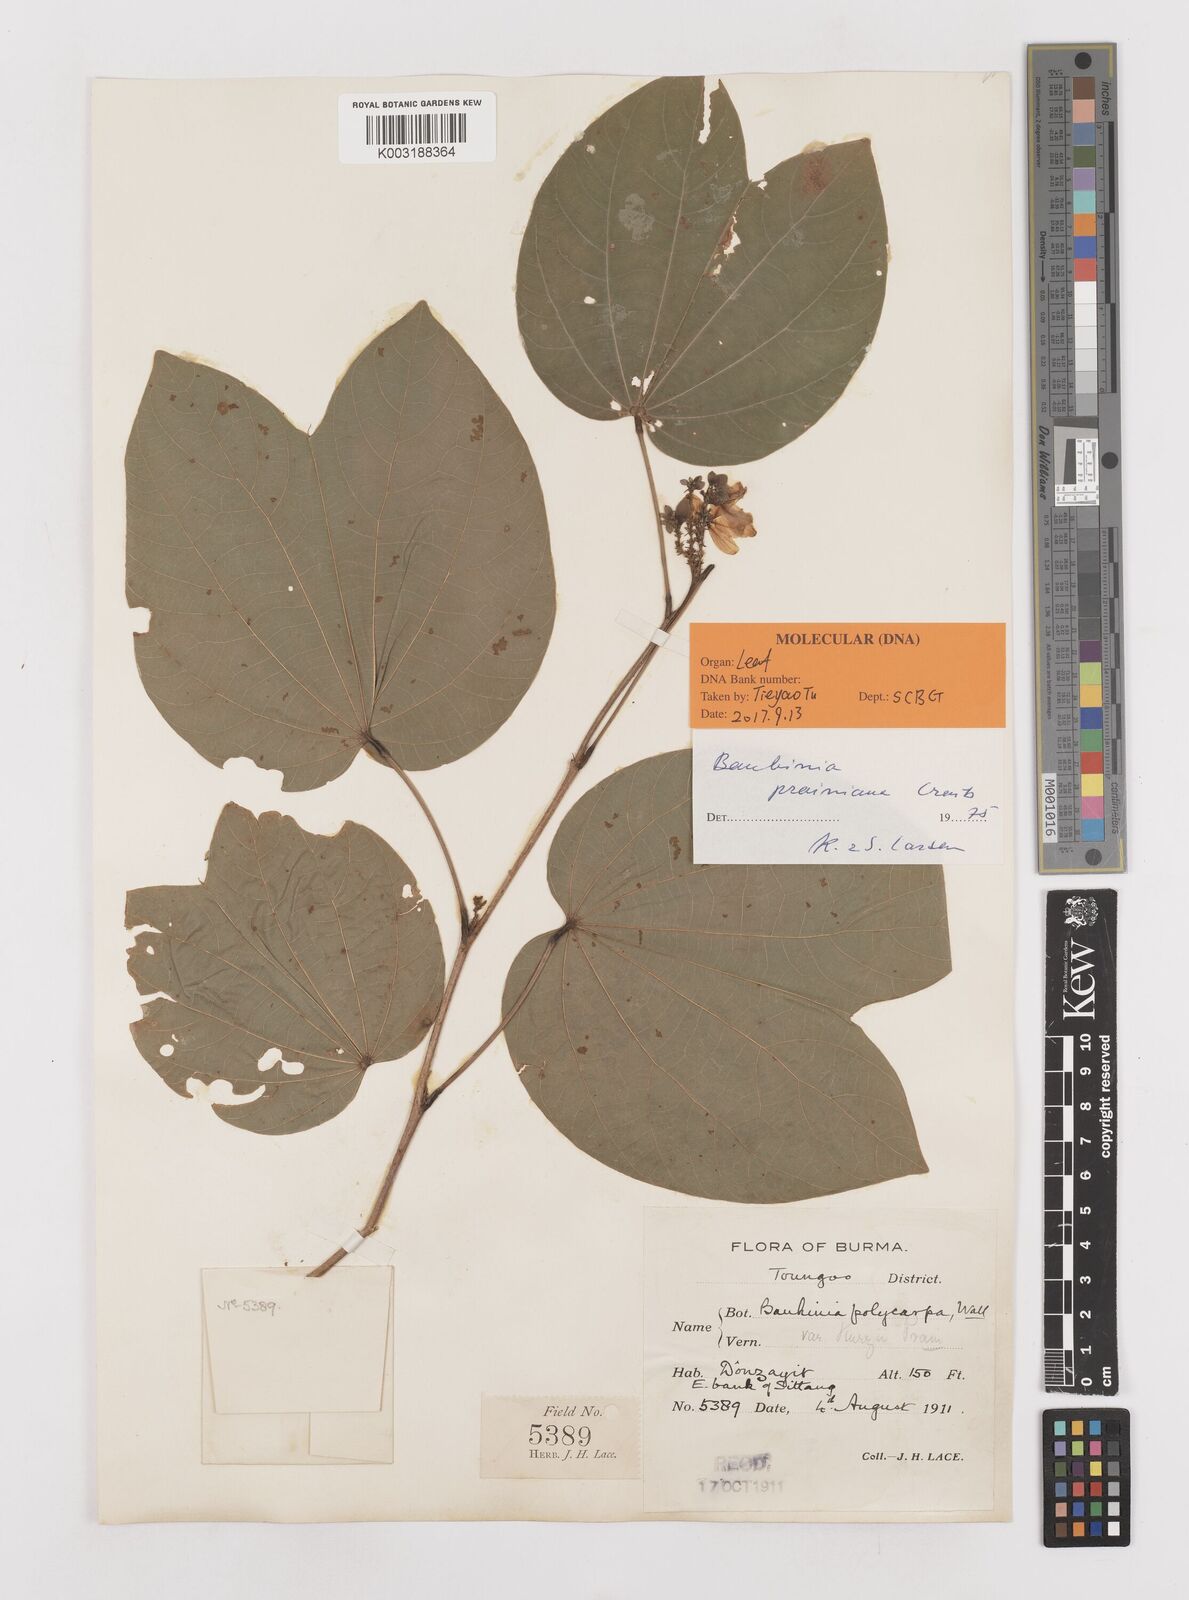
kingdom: Plantae
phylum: Tracheophyta
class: Magnoliopsida
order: Fabales
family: Fabaceae
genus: Bauhinia
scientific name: Bauhinia prainiana
